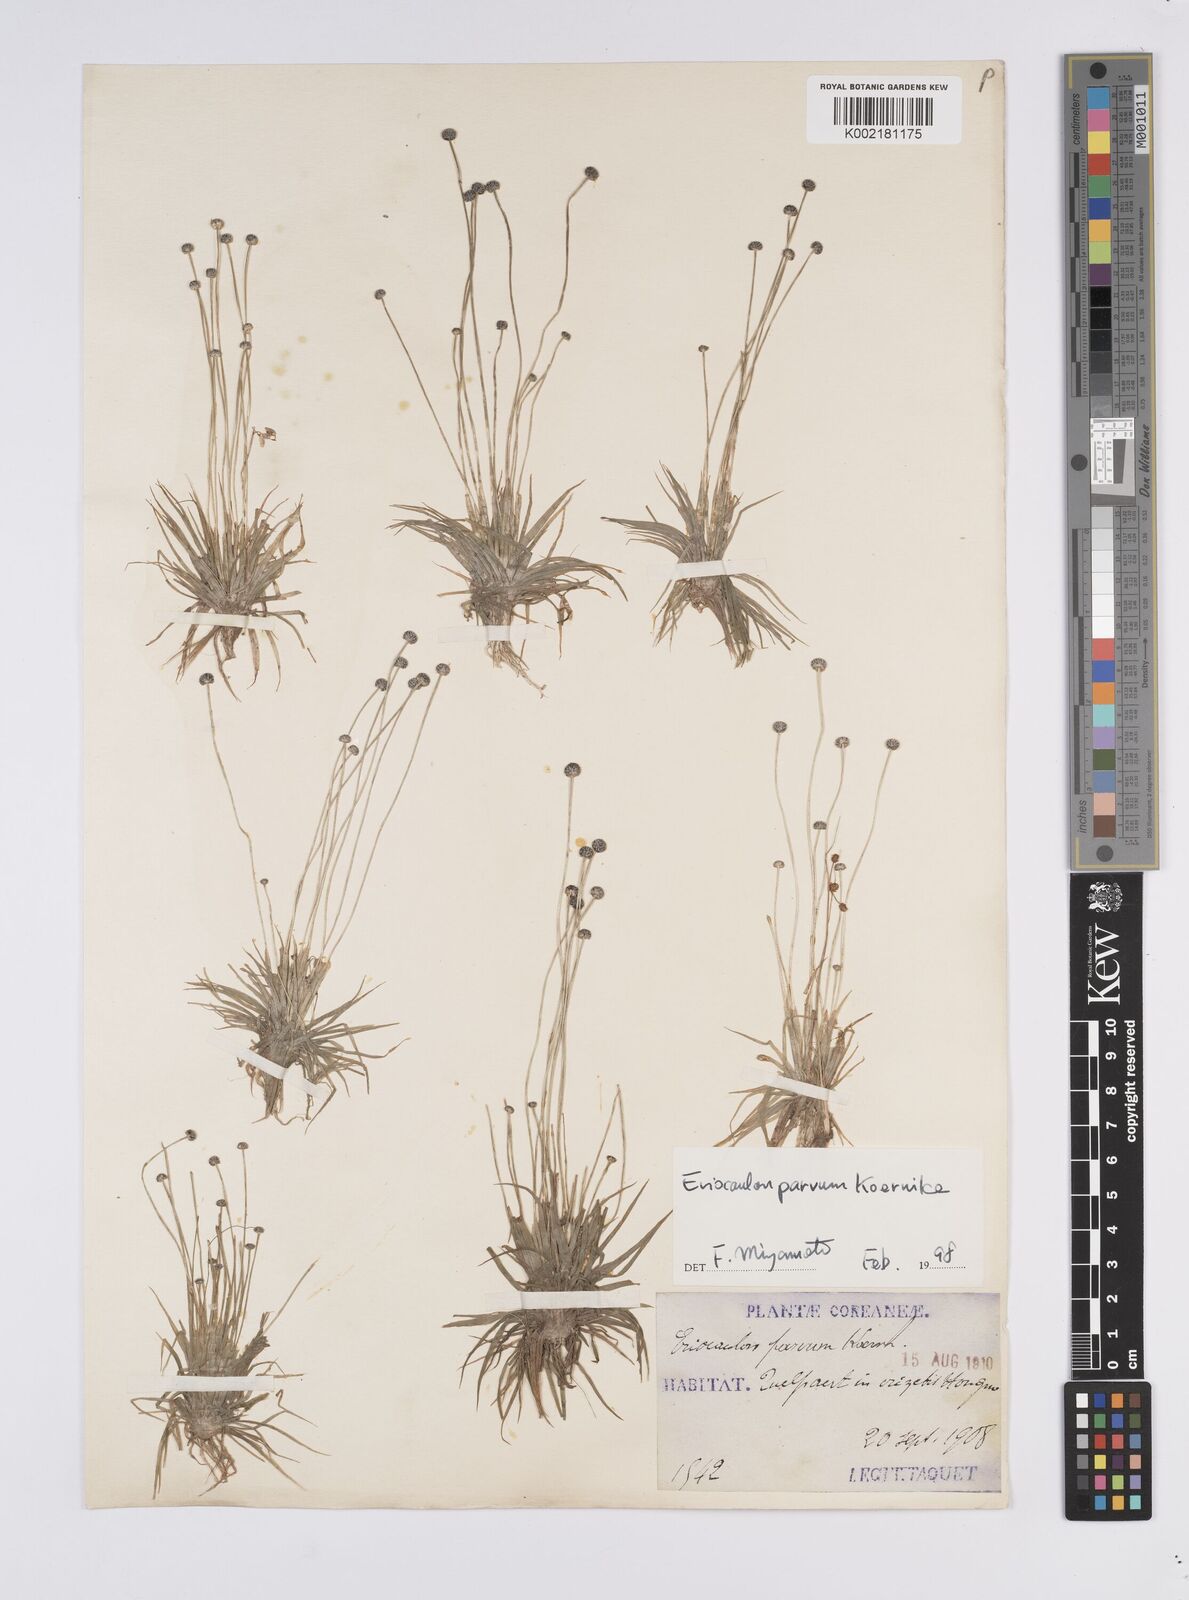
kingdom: Plantae
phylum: Tracheophyta
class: Liliopsida
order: Poales
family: Eriocaulaceae
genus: Eriocaulon
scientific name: Eriocaulon parvum
